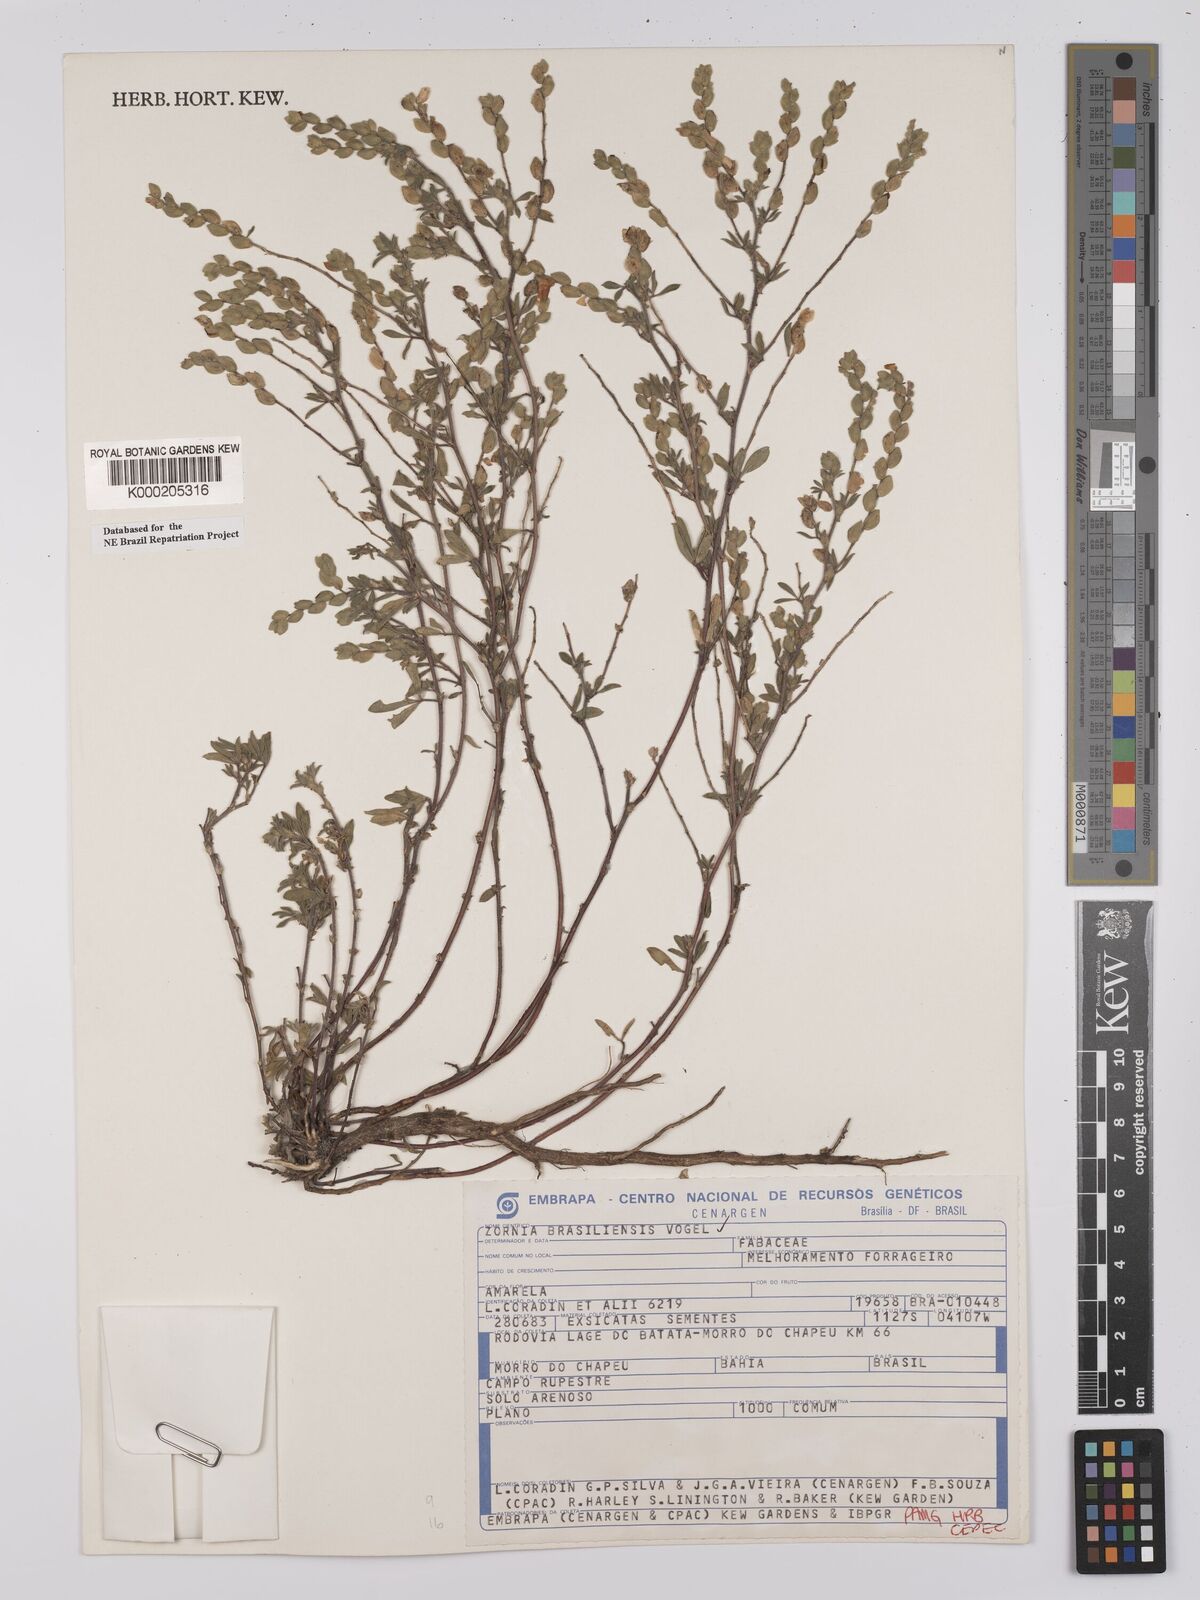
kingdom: Plantae
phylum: Tracheophyta
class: Magnoliopsida
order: Fabales
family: Fabaceae
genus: Zornia
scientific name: Zornia brasiliensis
